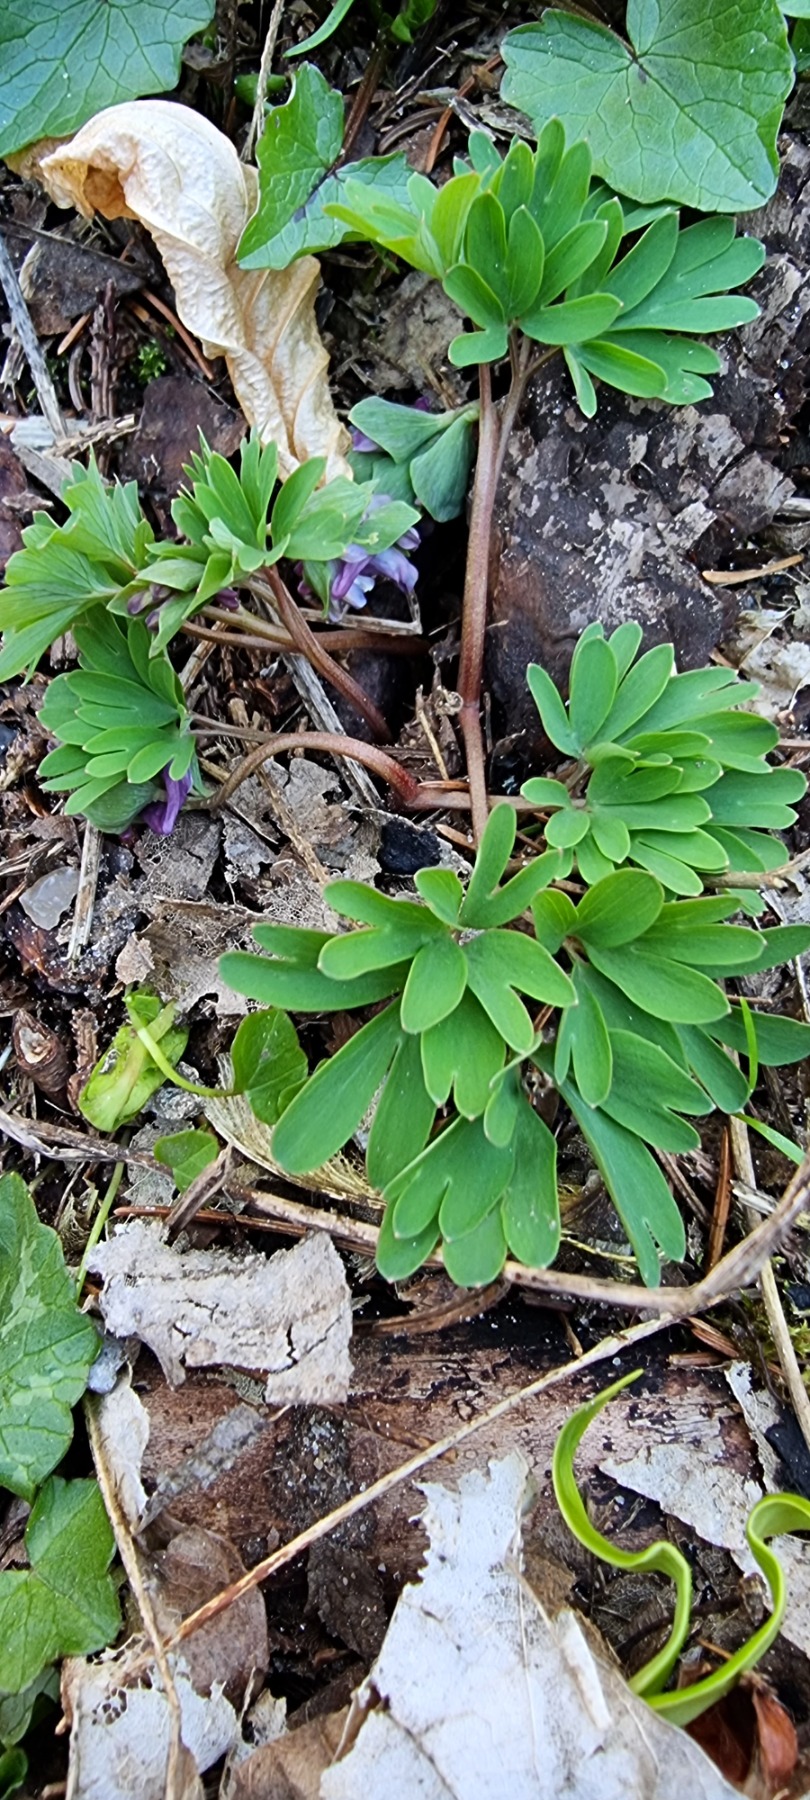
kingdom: Plantae
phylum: Tracheophyta
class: Magnoliopsida
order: Ranunculales
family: Papaveraceae
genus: Corydalis
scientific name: Corydalis intermedia
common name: Liden lærkespore
